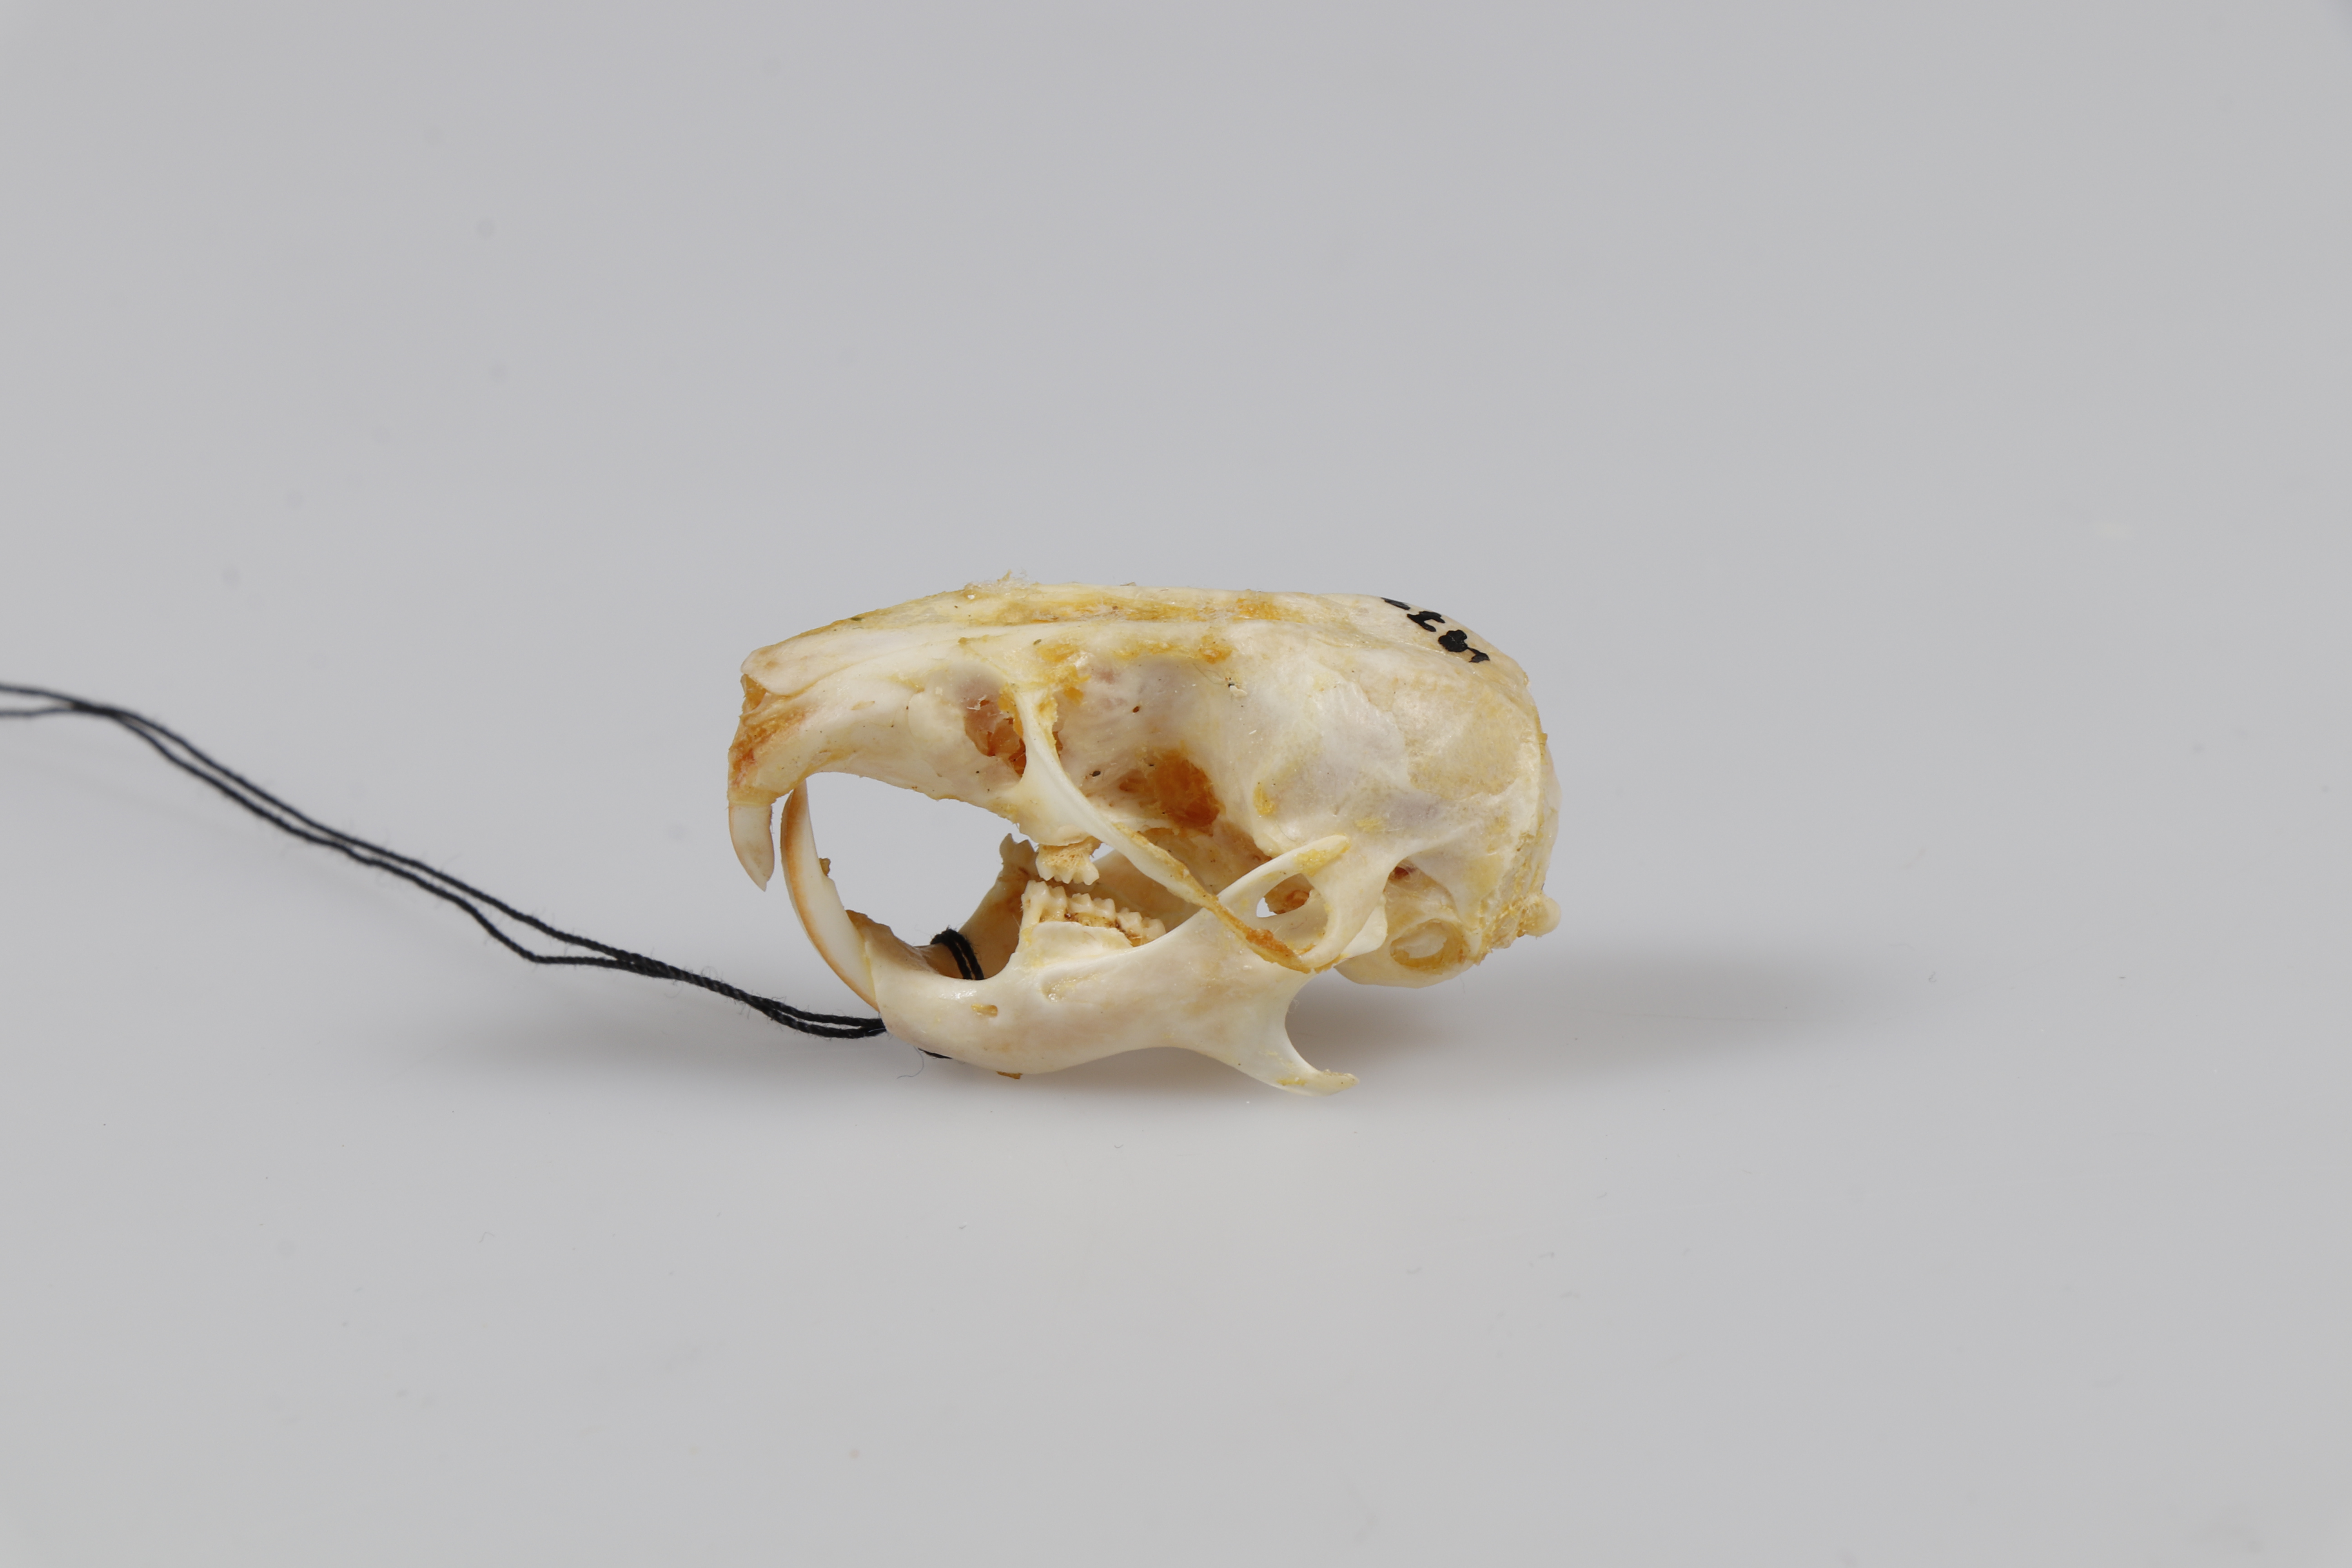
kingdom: Animalia
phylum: Chordata
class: Mammalia
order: Rodentia
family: Dipodidae
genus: Jaculus
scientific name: Jaculus
